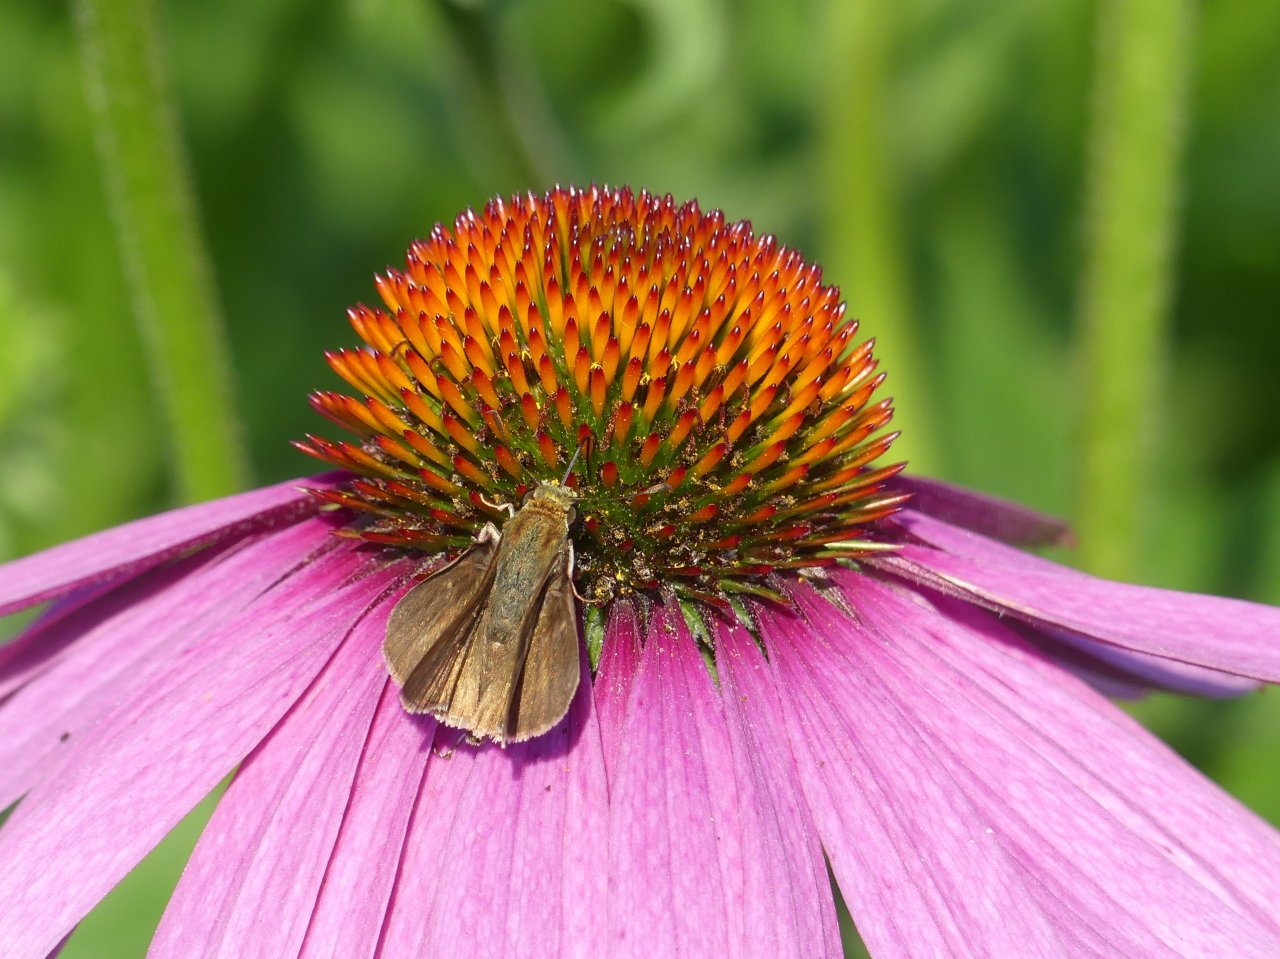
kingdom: Animalia
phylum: Arthropoda
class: Insecta
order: Lepidoptera
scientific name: Lepidoptera
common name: Butterflies
